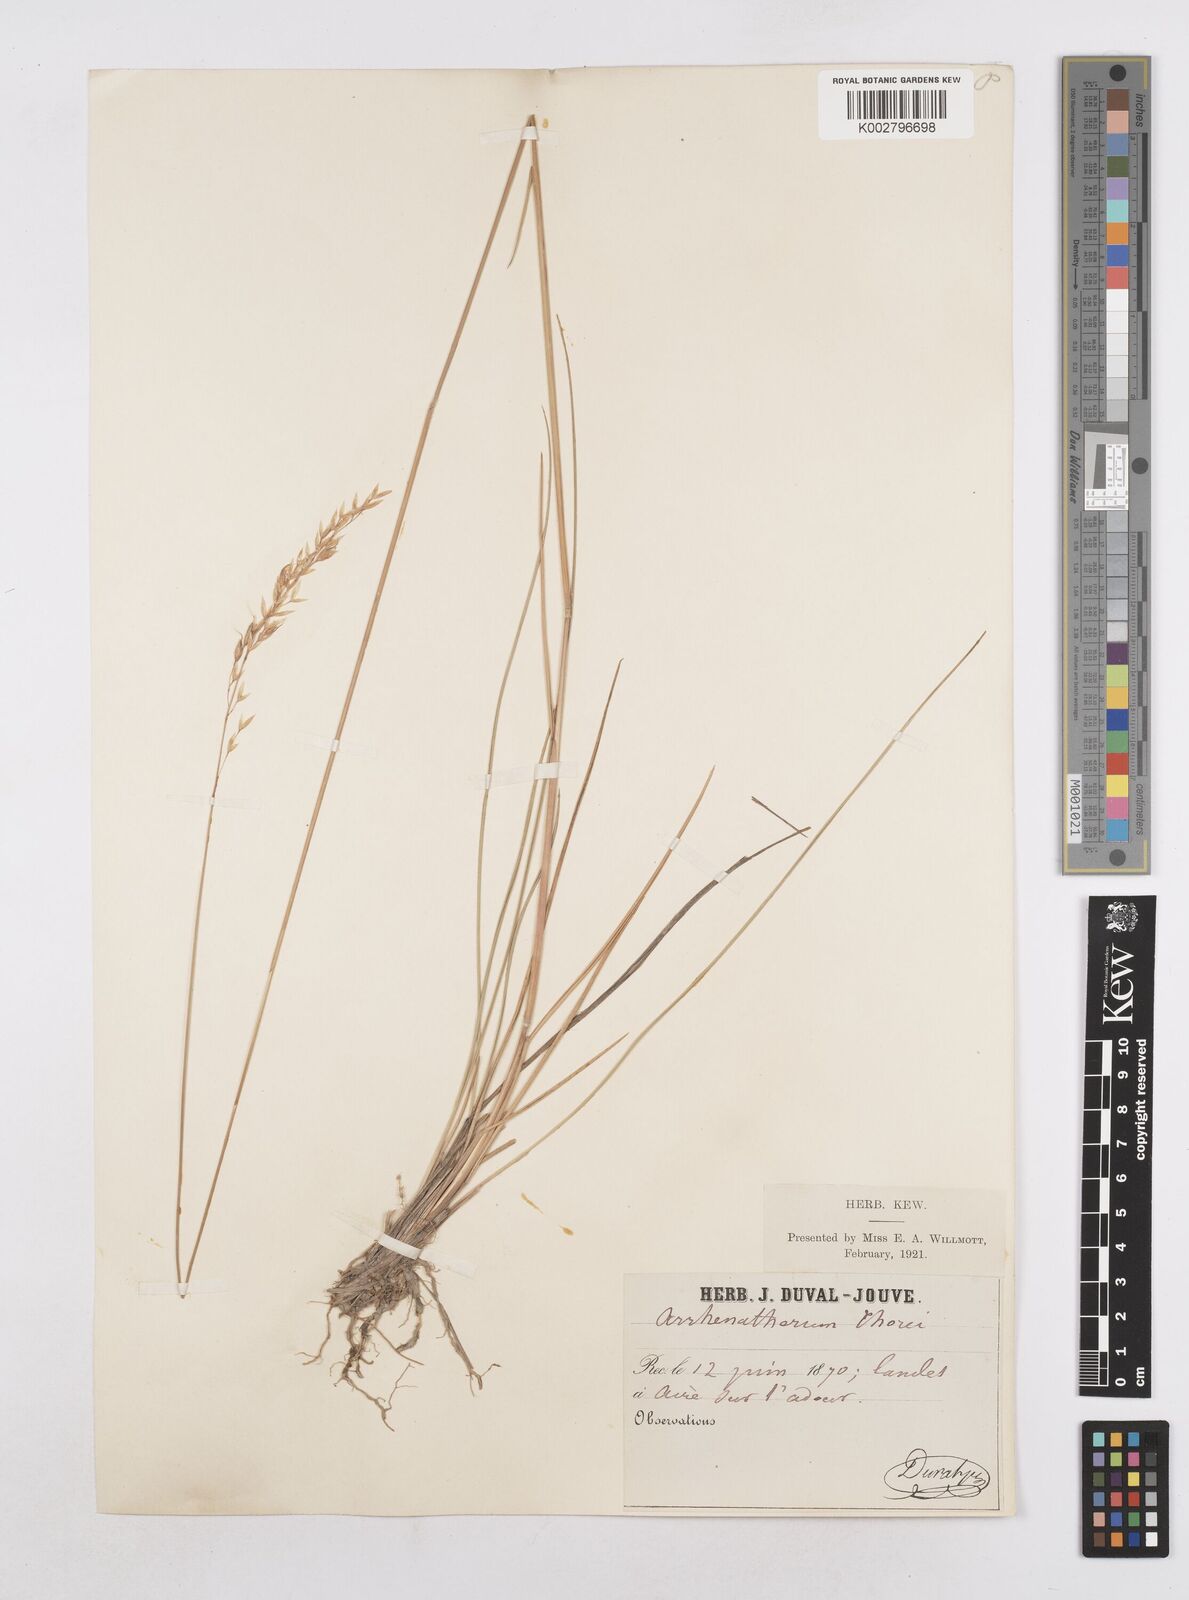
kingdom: Plantae
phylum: Tracheophyta
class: Liliopsida
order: Poales
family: Poaceae
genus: Arrhenatherum
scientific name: Arrhenatherum longifolium
